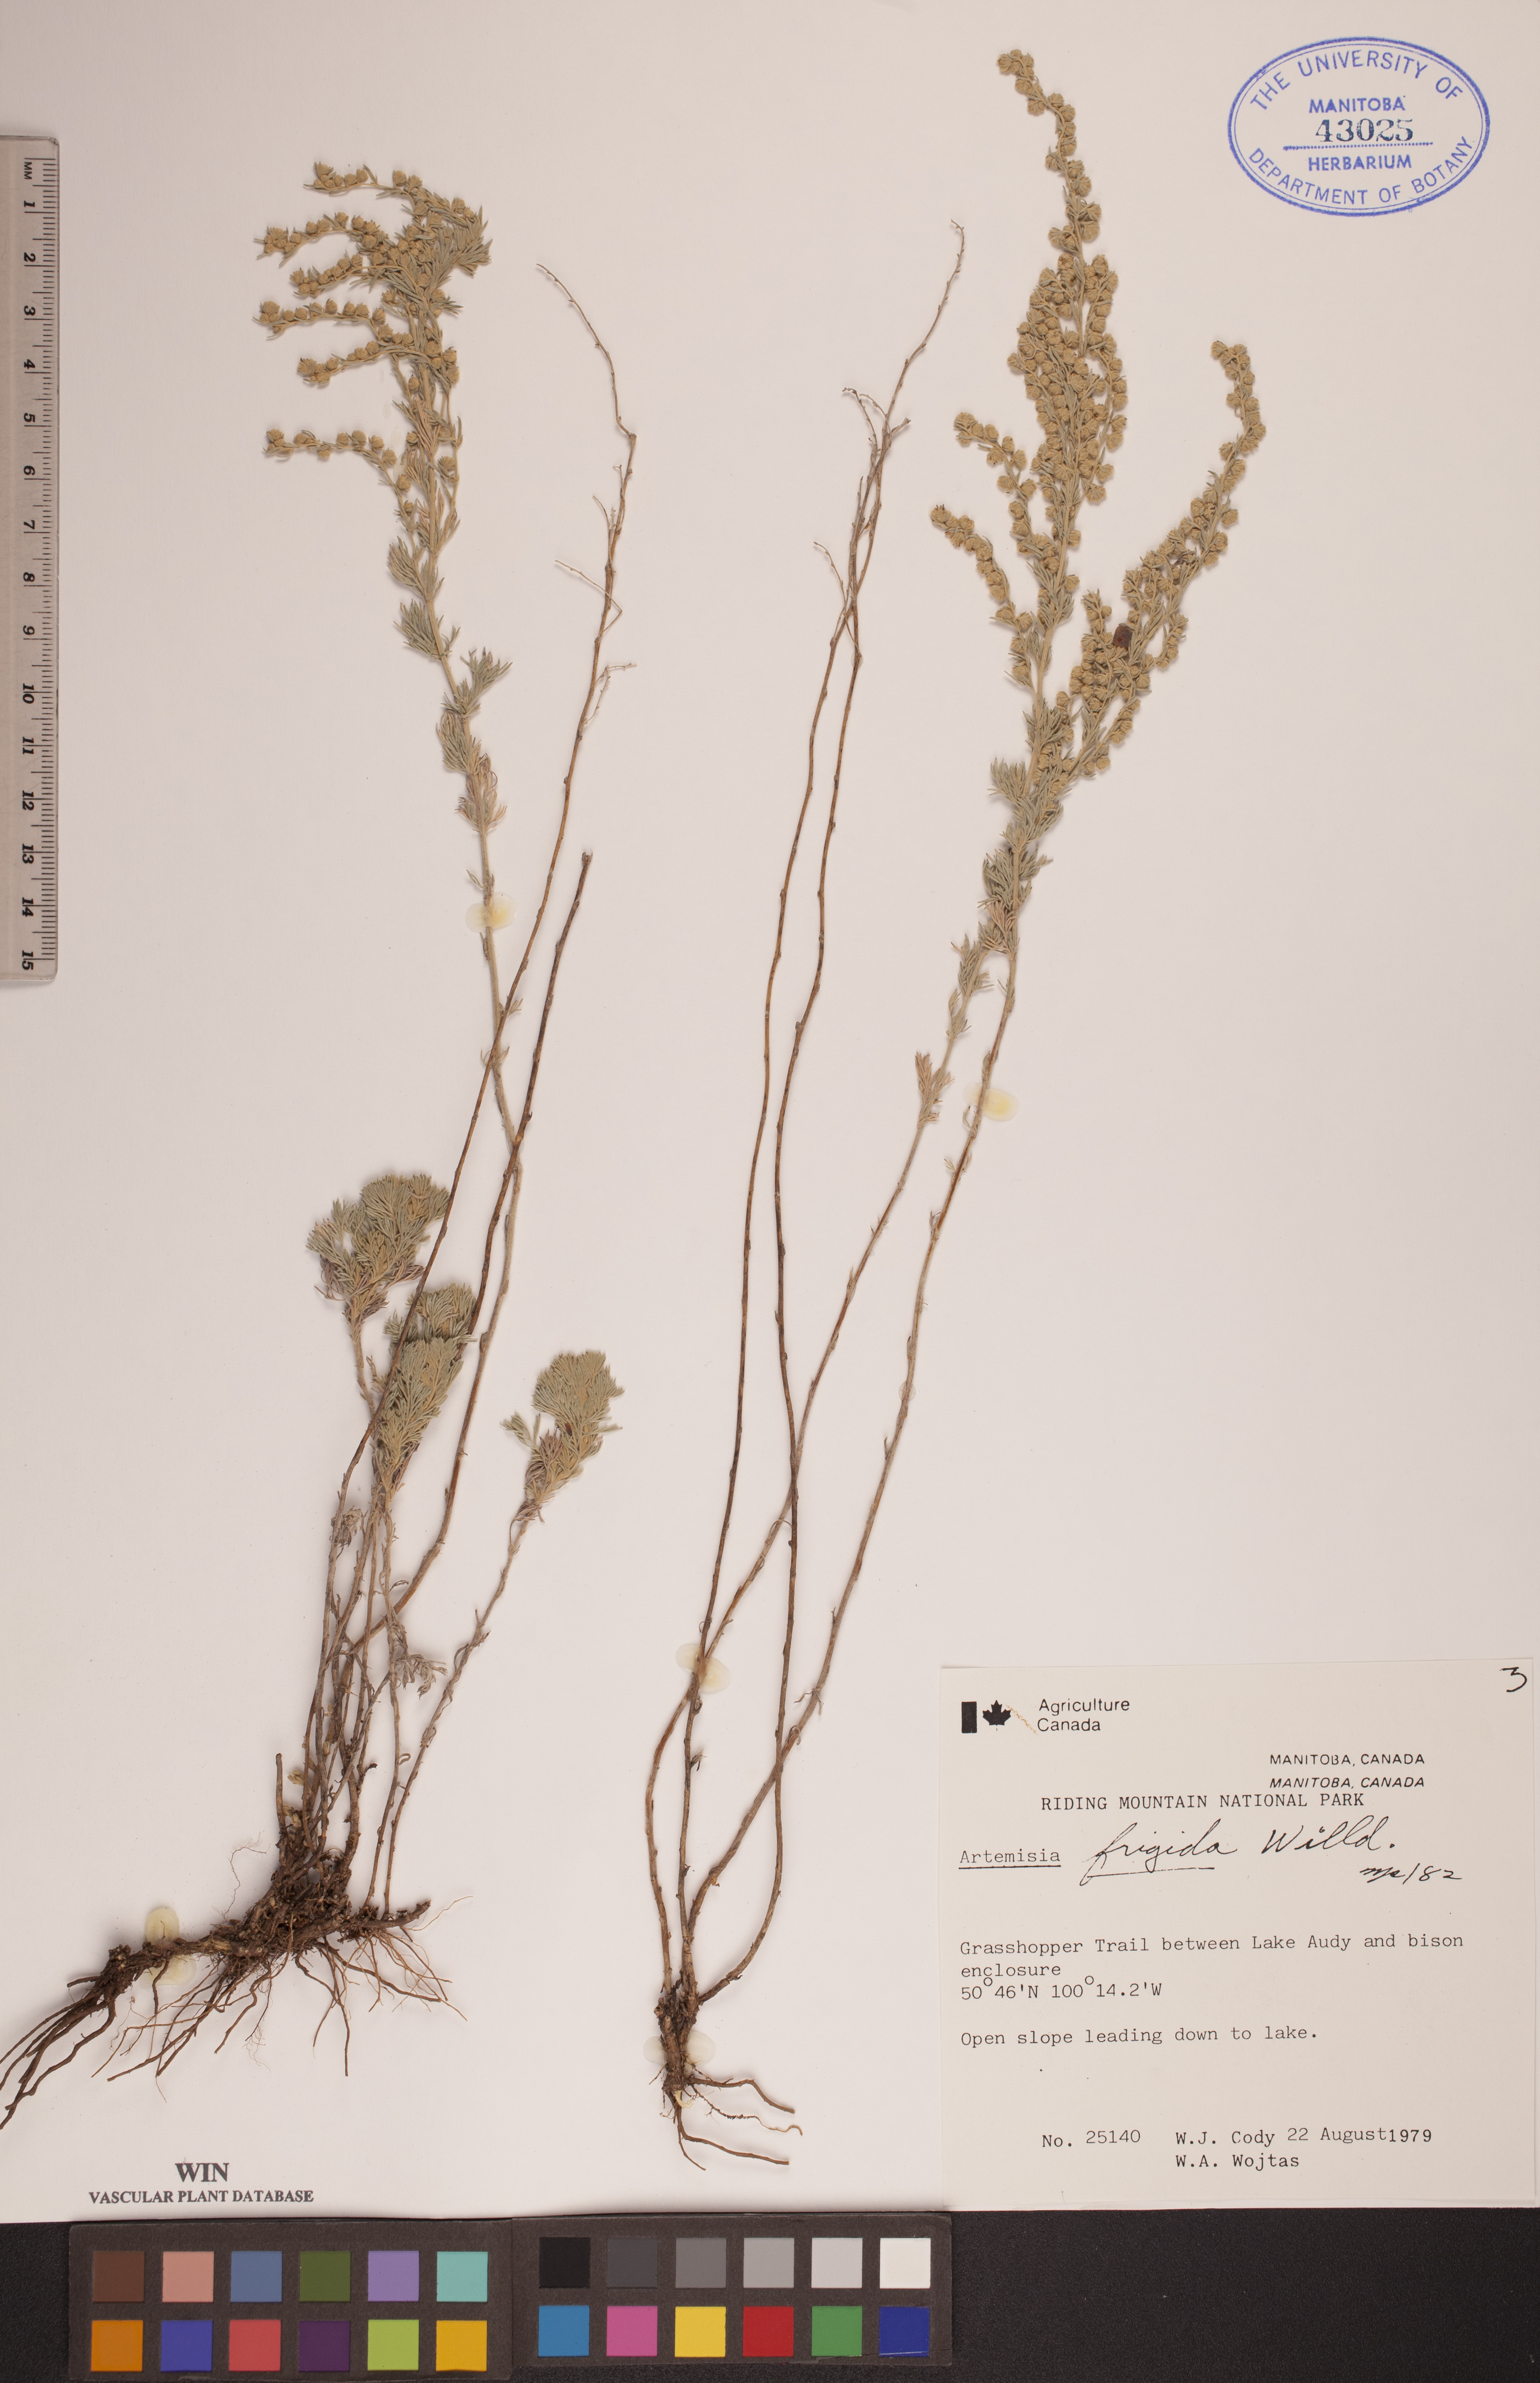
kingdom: Plantae
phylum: Tracheophyta
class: Magnoliopsida
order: Asterales
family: Asteraceae
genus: Artemisia
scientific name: Artemisia frigida
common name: Prairie sagewort
